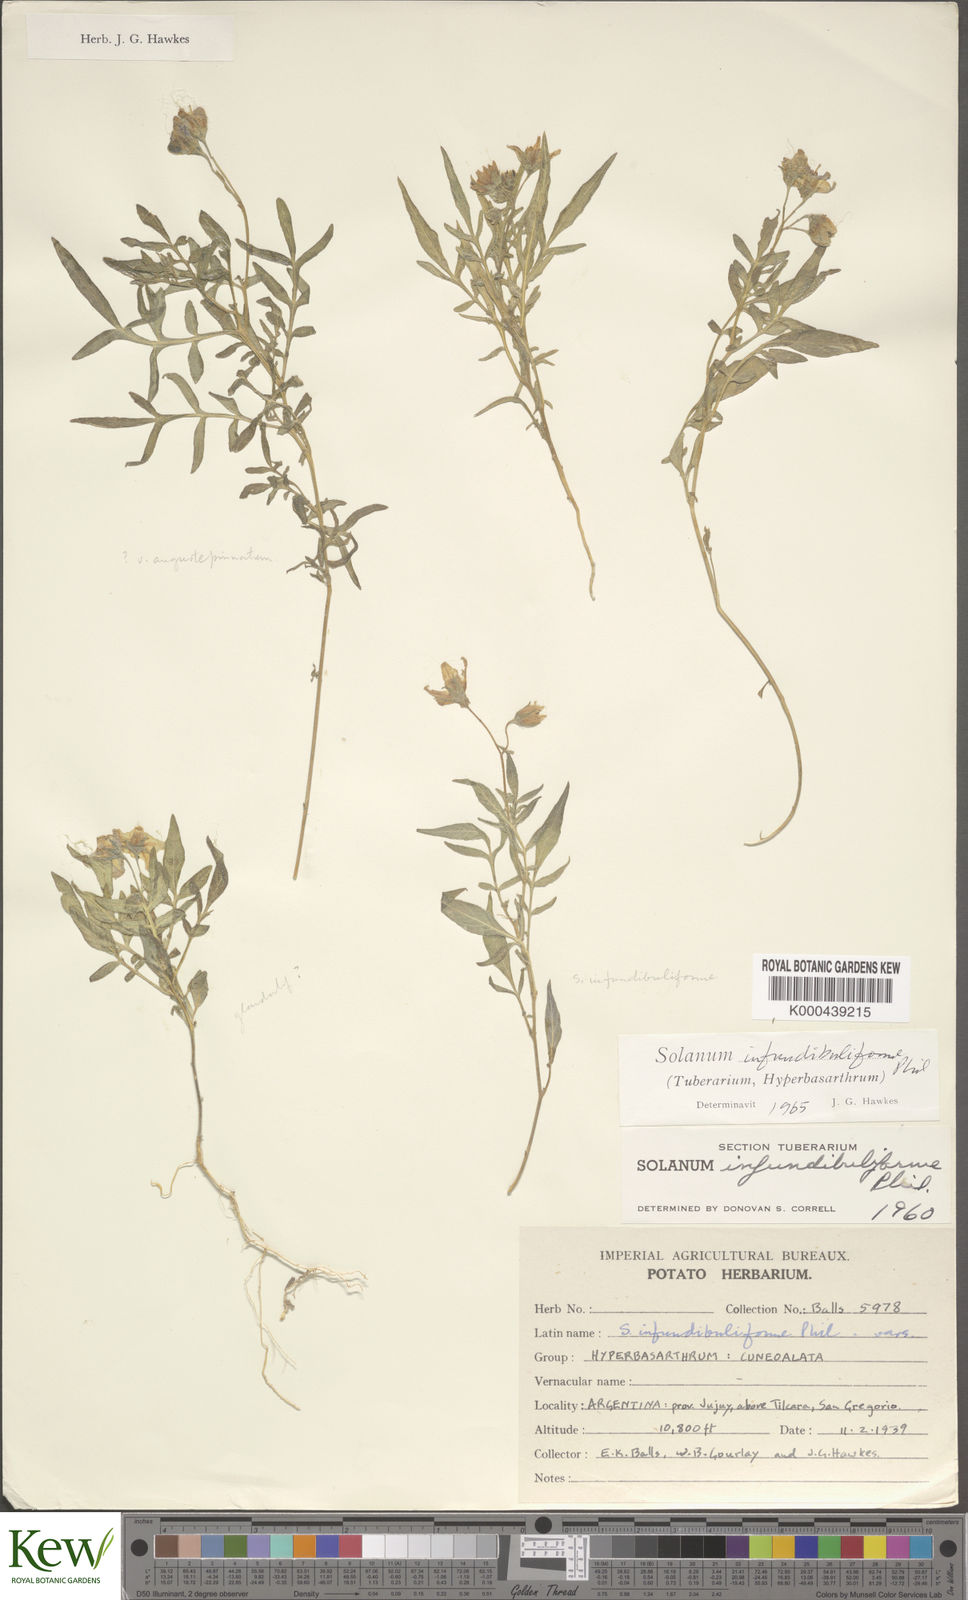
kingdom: Plantae
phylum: Tracheophyta
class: Magnoliopsida
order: Solanales
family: Solanaceae
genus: Solanum
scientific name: Solanum infundibuliforme
